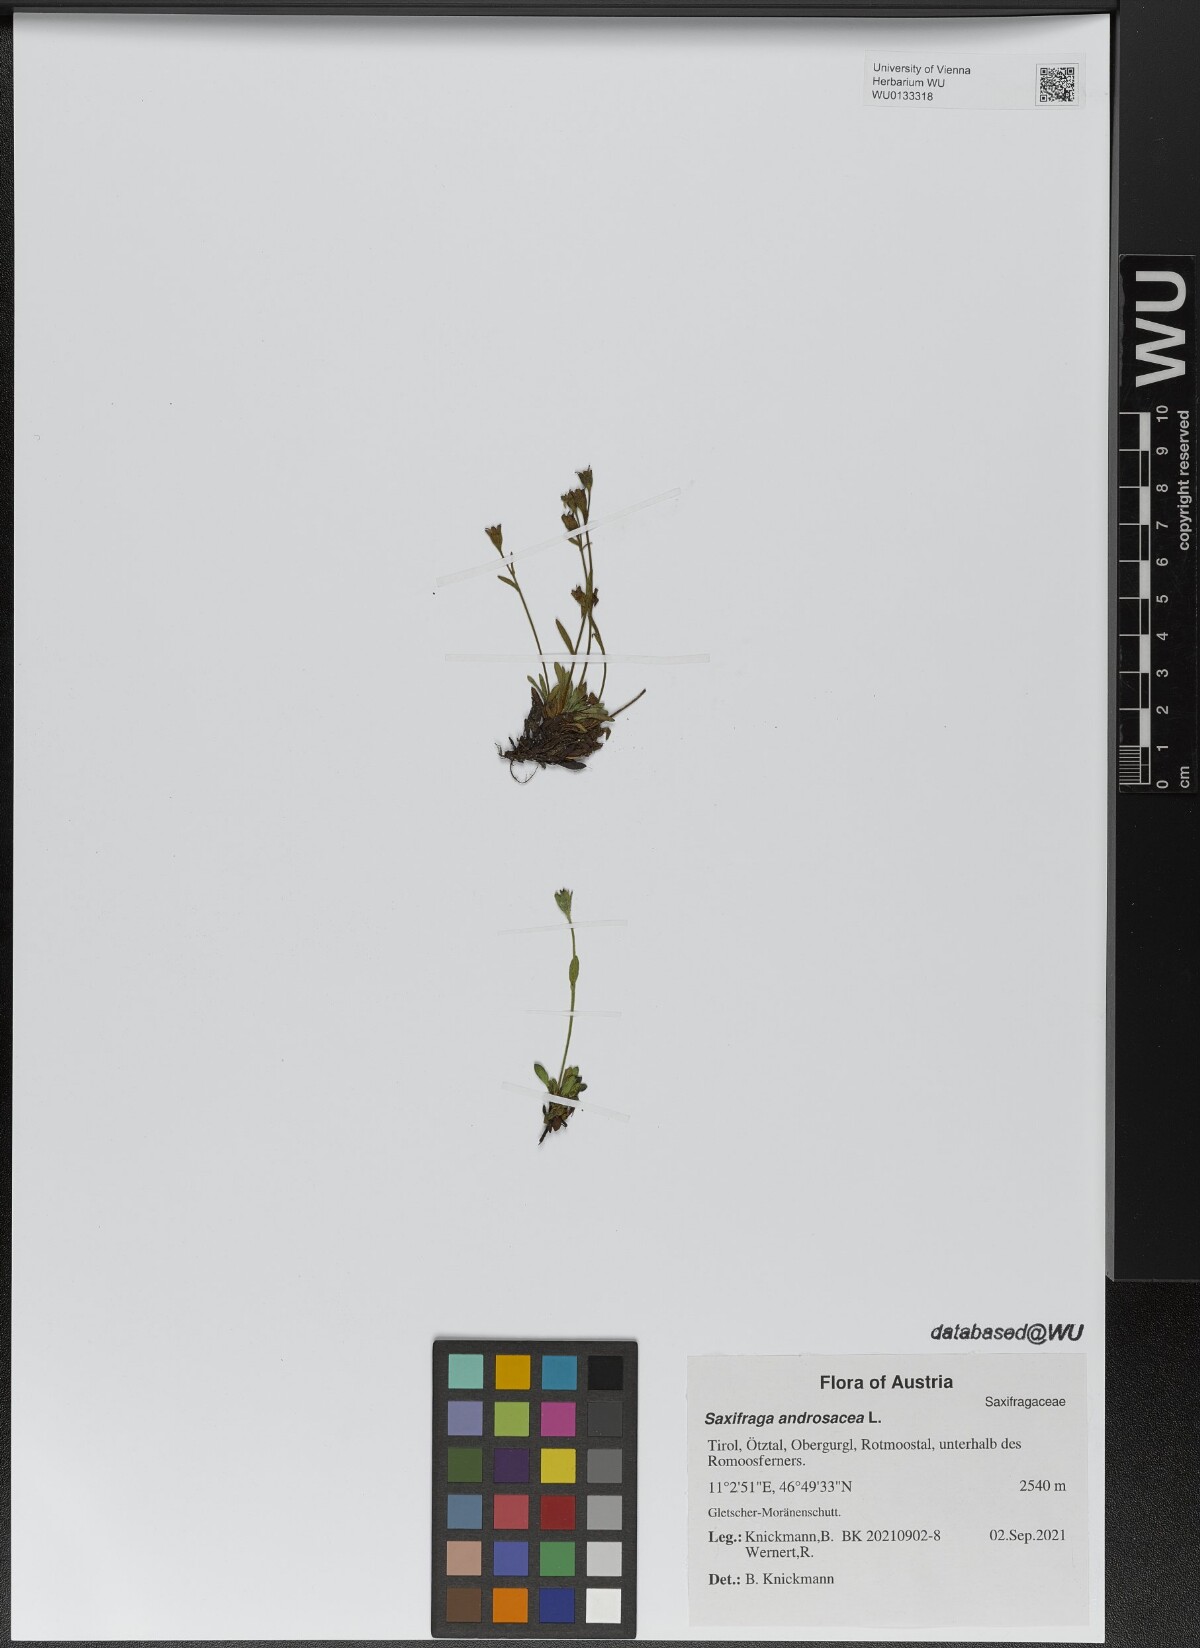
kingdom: Plantae
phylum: Tracheophyta
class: Magnoliopsida
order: Saxifragales
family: Saxifragaceae
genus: Saxifraga
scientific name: Saxifraga androsacea
